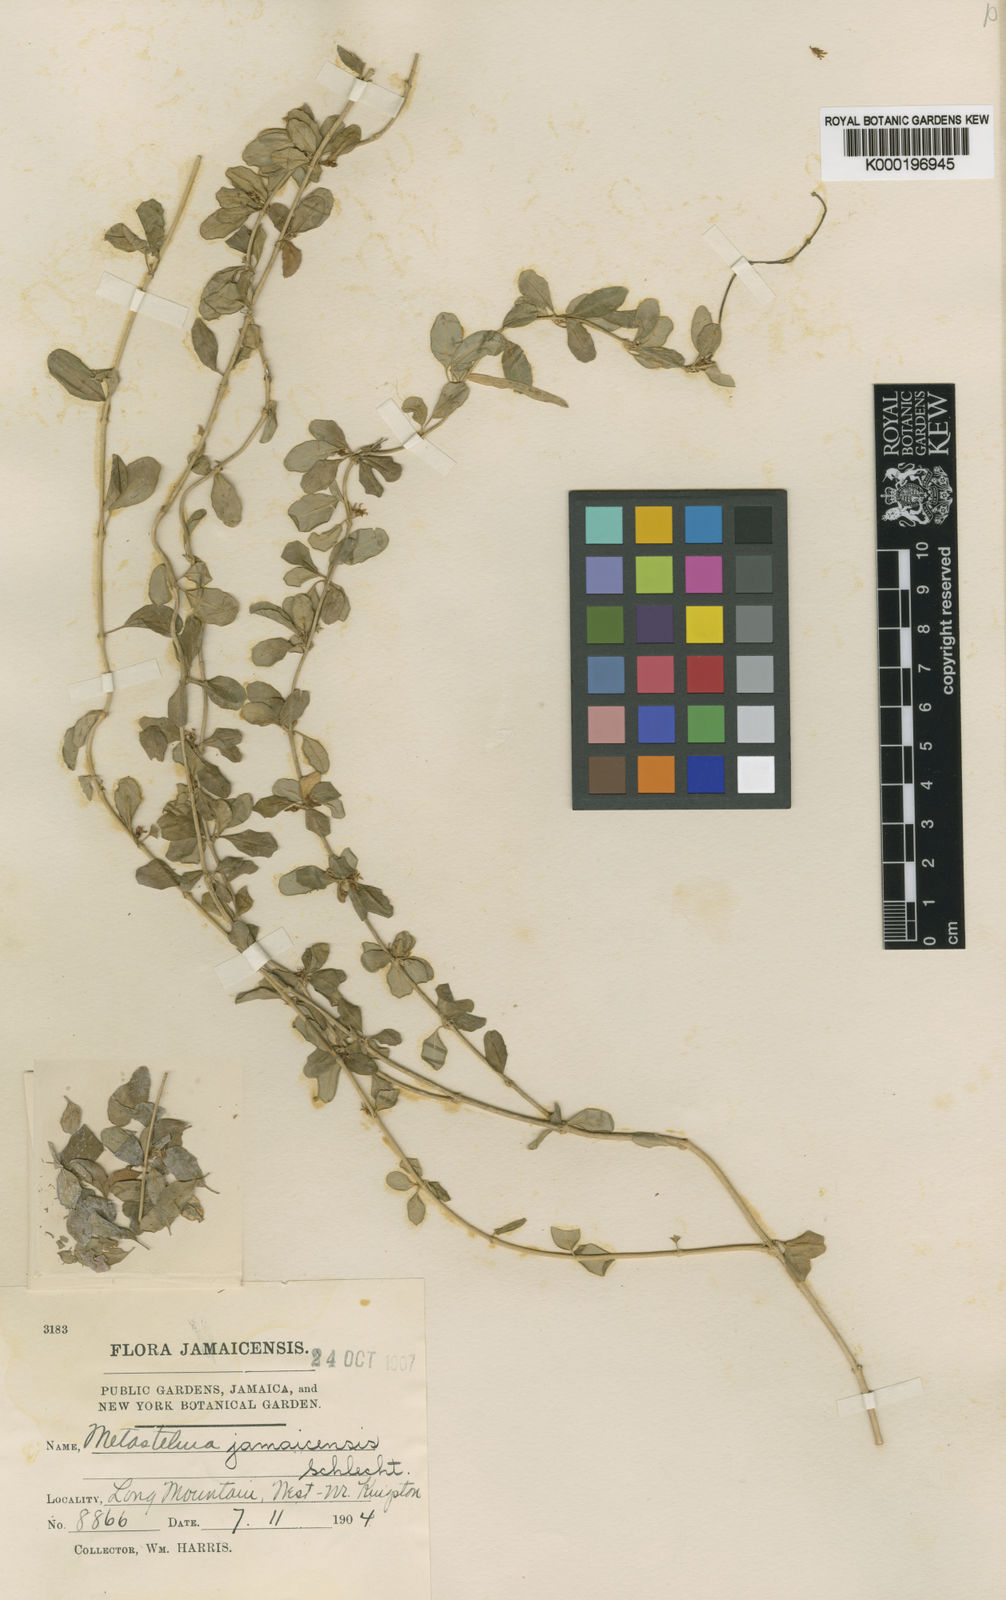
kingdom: Plantae
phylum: Tracheophyta
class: Magnoliopsida
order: Gentianales
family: Apocynaceae
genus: Metastelma
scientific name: Metastelma
